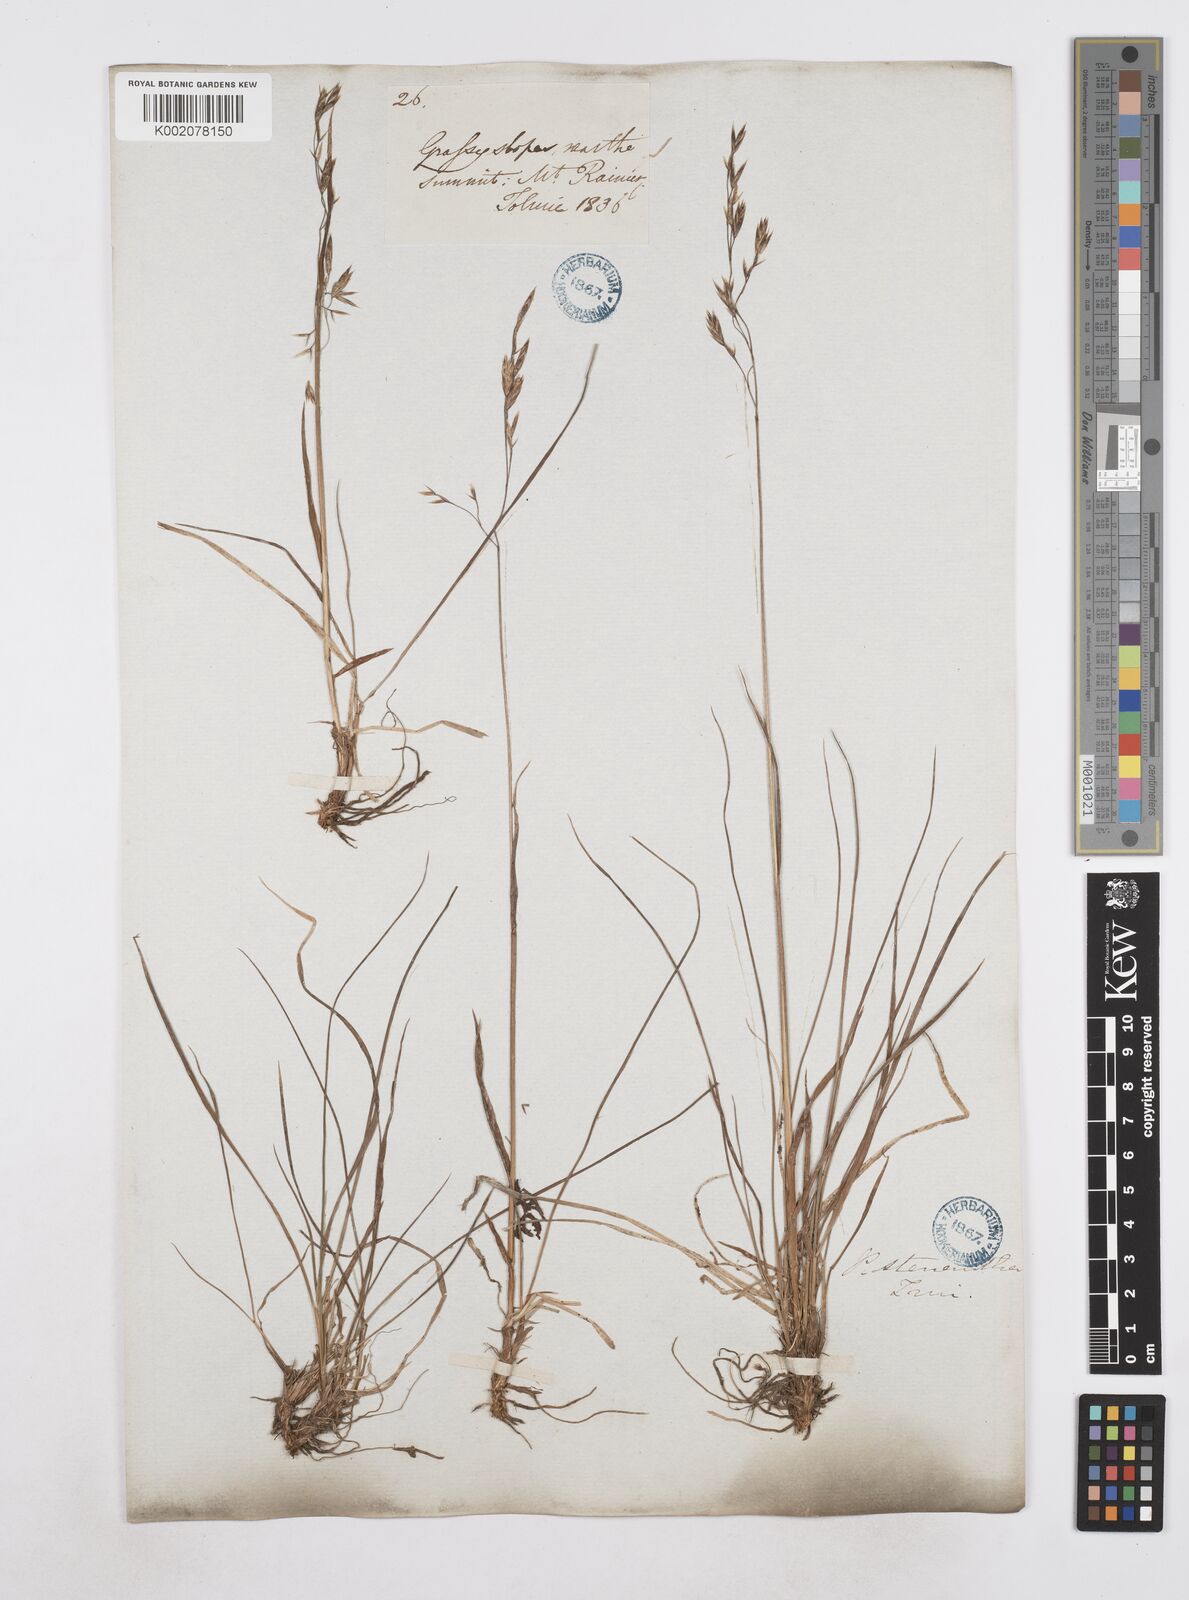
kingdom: Plantae
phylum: Tracheophyta
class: Liliopsida
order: Poales
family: Poaceae
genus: Poa
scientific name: Poa
